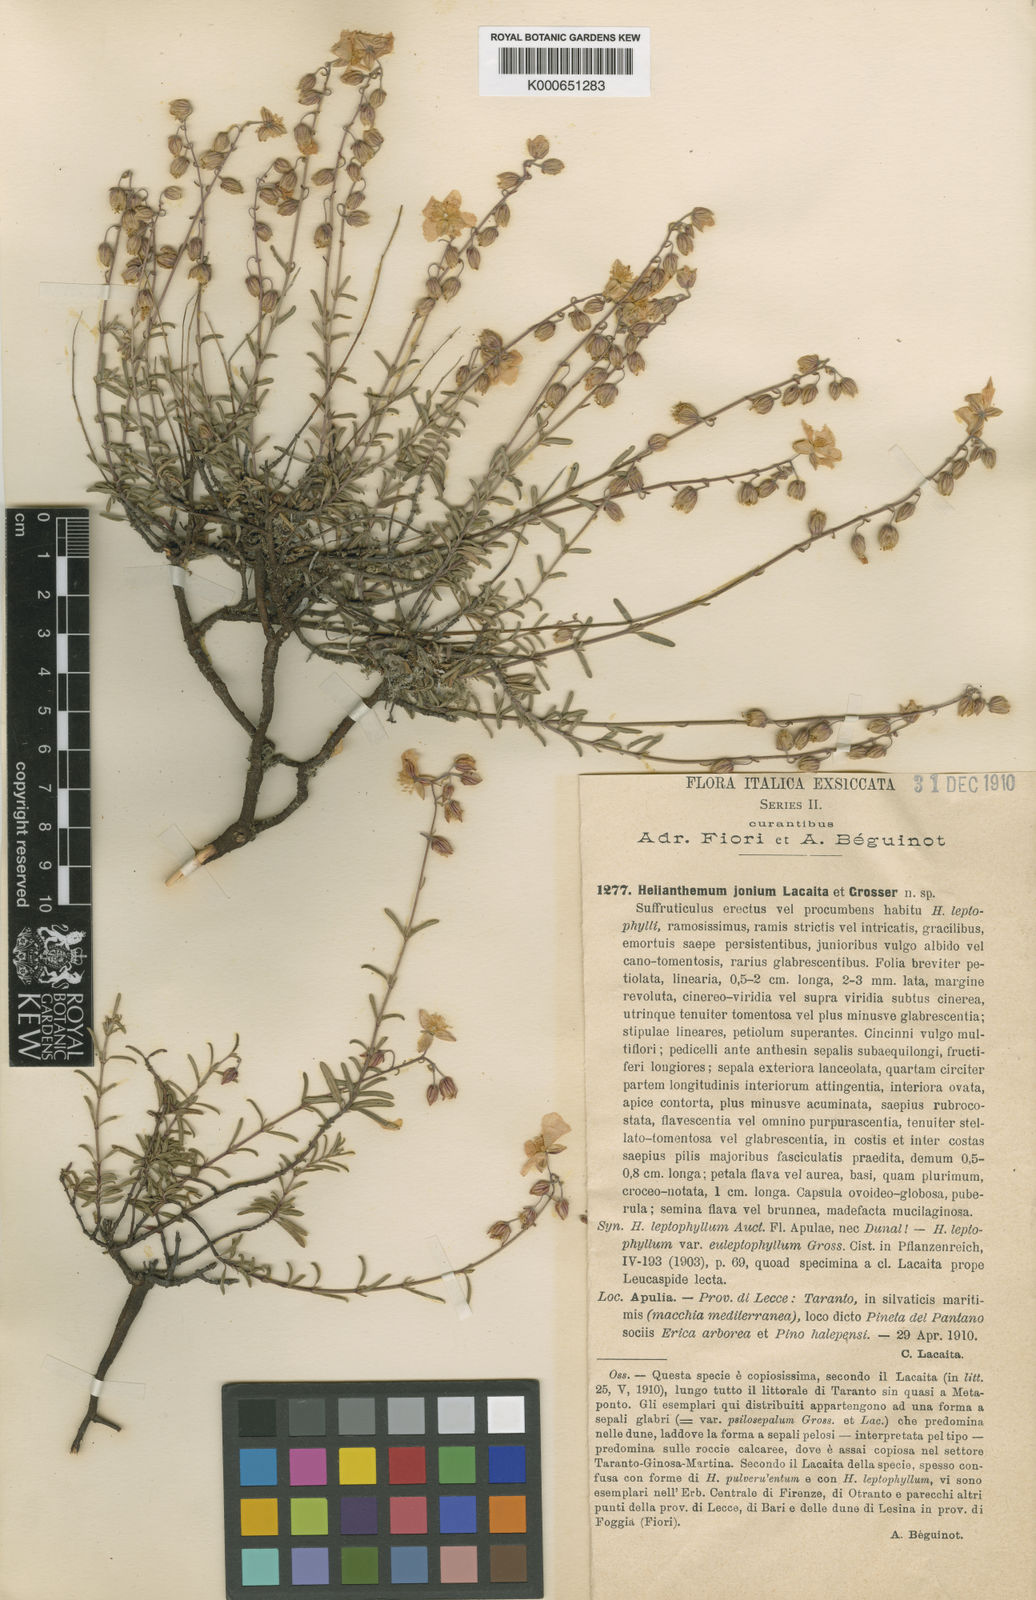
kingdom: Plantae
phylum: Tracheophyta
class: Magnoliopsida
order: Malvales
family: Cistaceae
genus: Helianthemum
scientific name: Helianthemum
